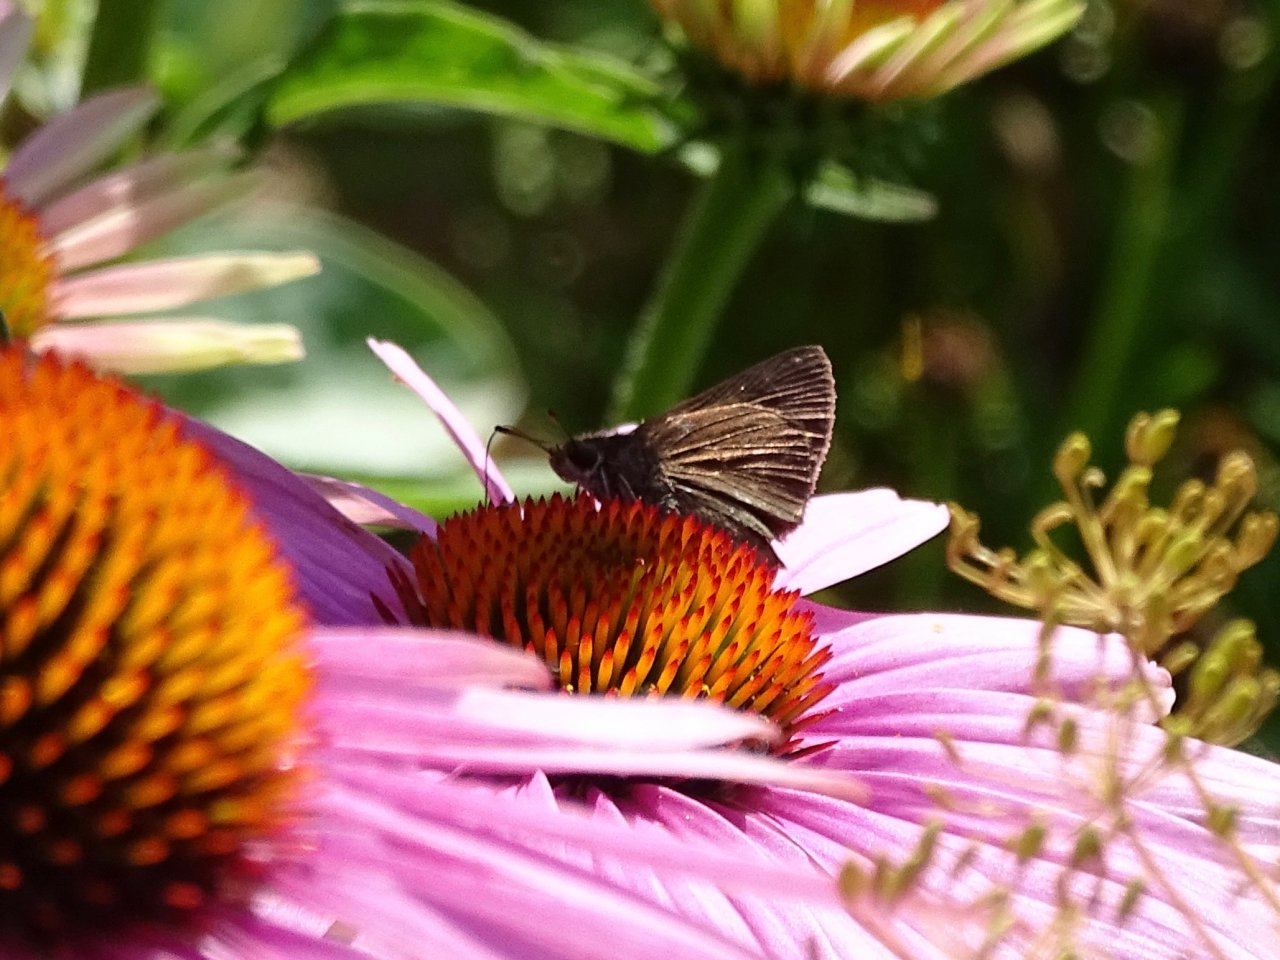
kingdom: Animalia
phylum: Arthropoda
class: Insecta
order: Lepidoptera
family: Hesperiidae
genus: Euphyes
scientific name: Euphyes vestris
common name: Dun Skipper
